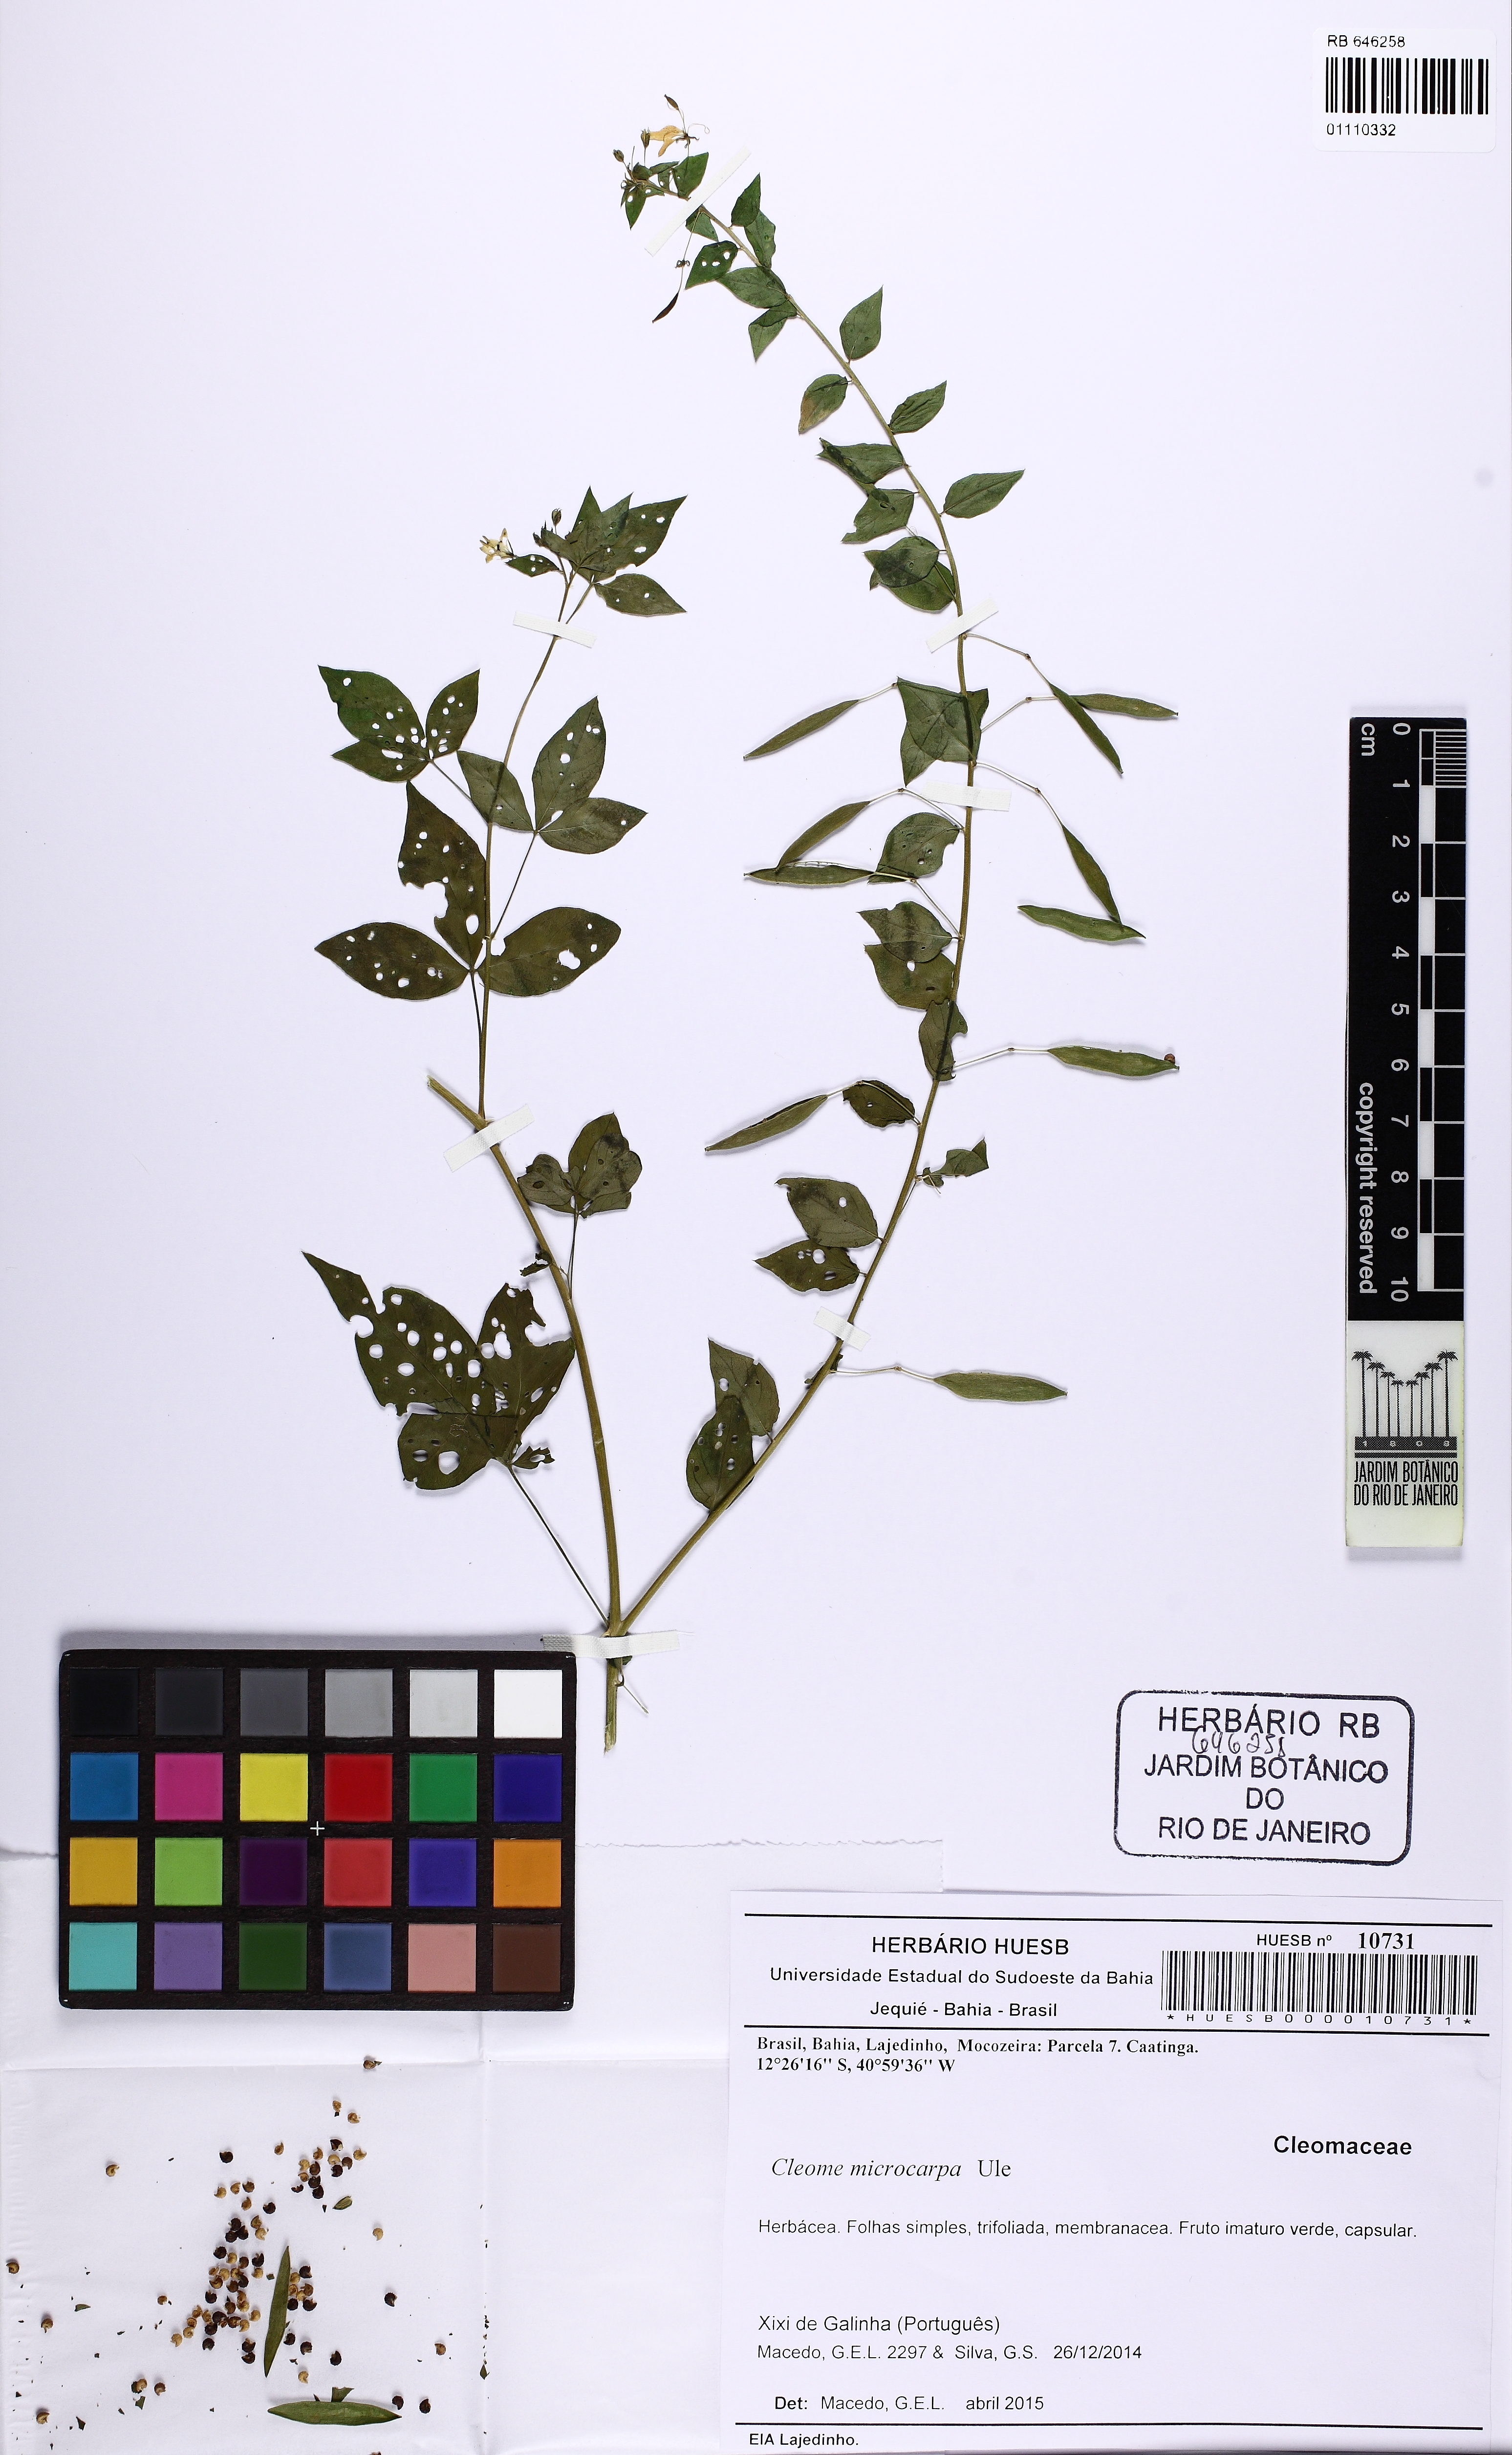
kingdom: Plantae
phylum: Tracheophyta
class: Magnoliopsida
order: Brassicales
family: Cleomaceae
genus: Tarenaya
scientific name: Tarenaya microcarpa
